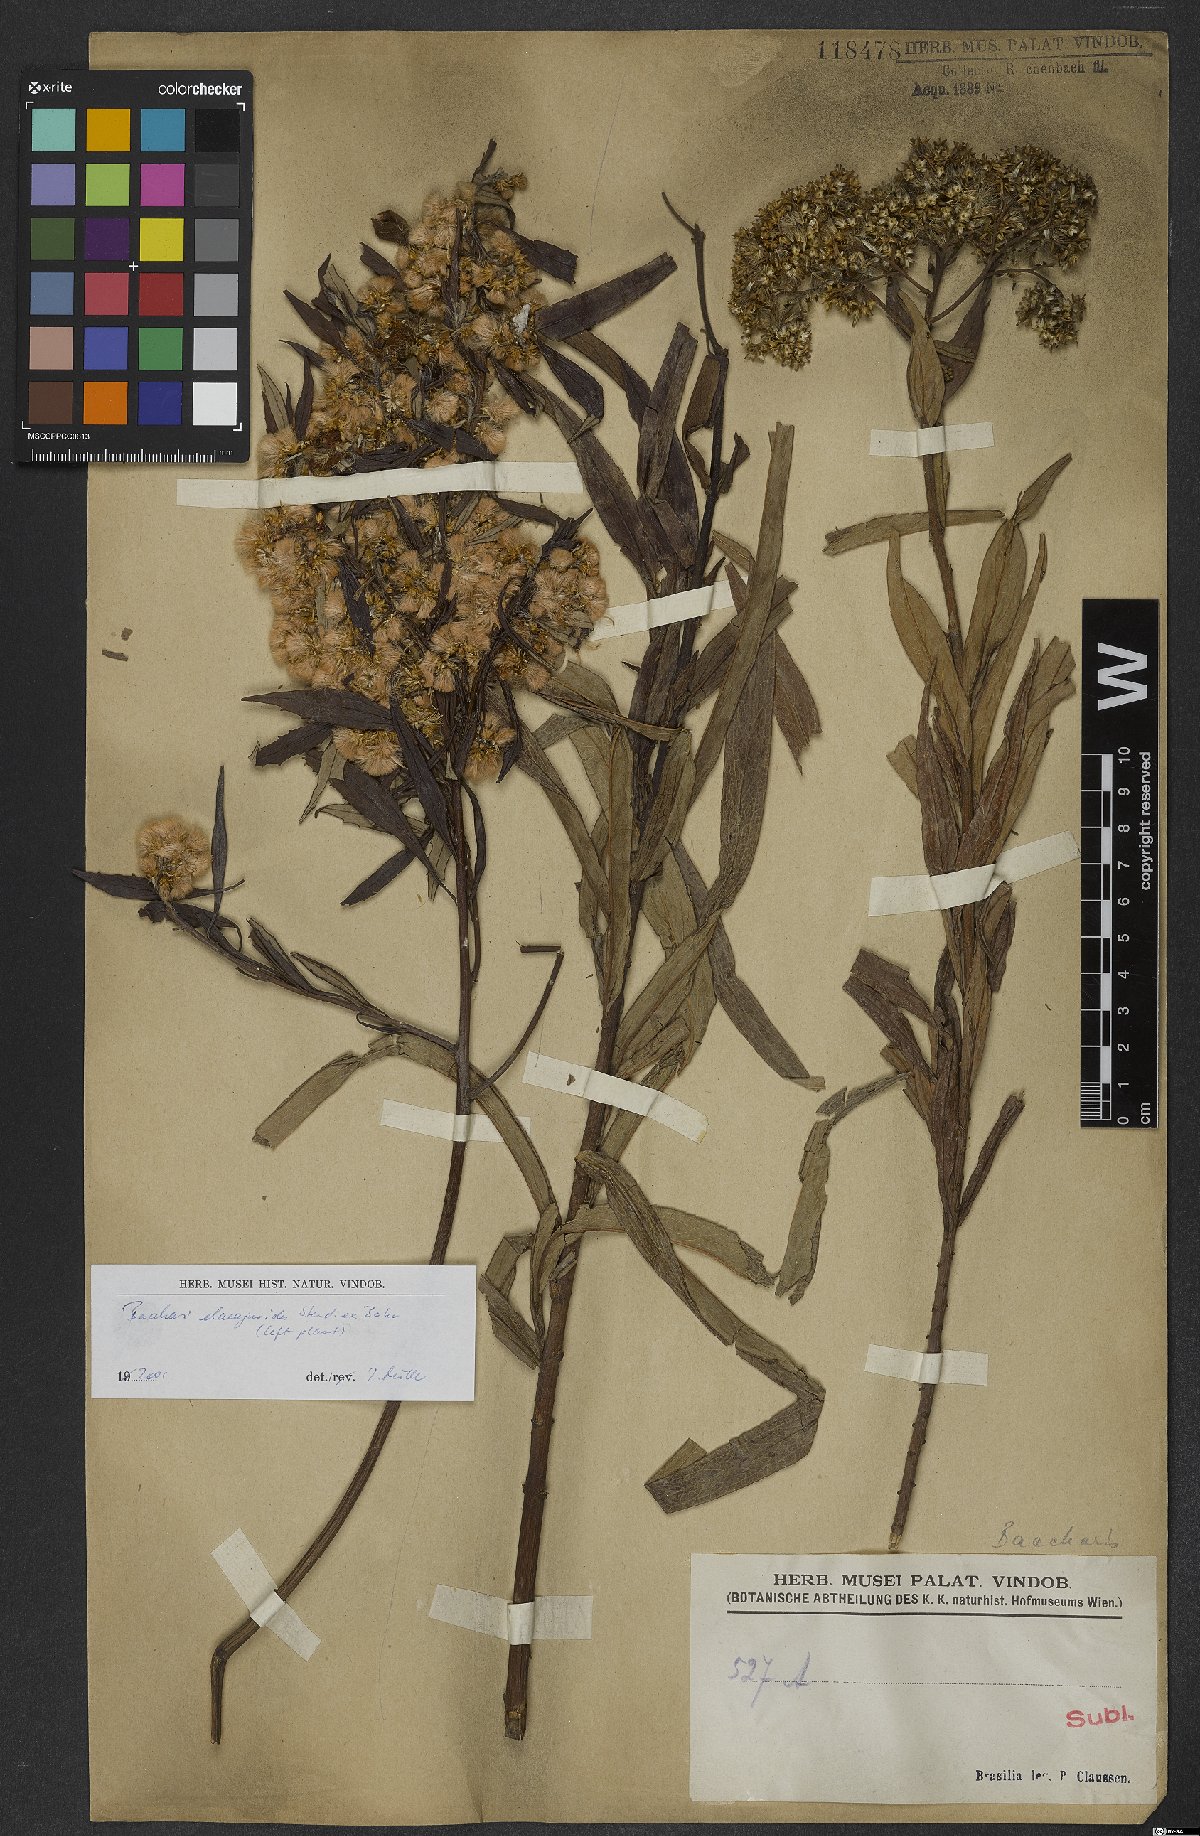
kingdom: Plantae
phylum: Tracheophyta
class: Magnoliopsida
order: Asterales
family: Asteraceae
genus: Baccharis
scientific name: Baccharis montana
